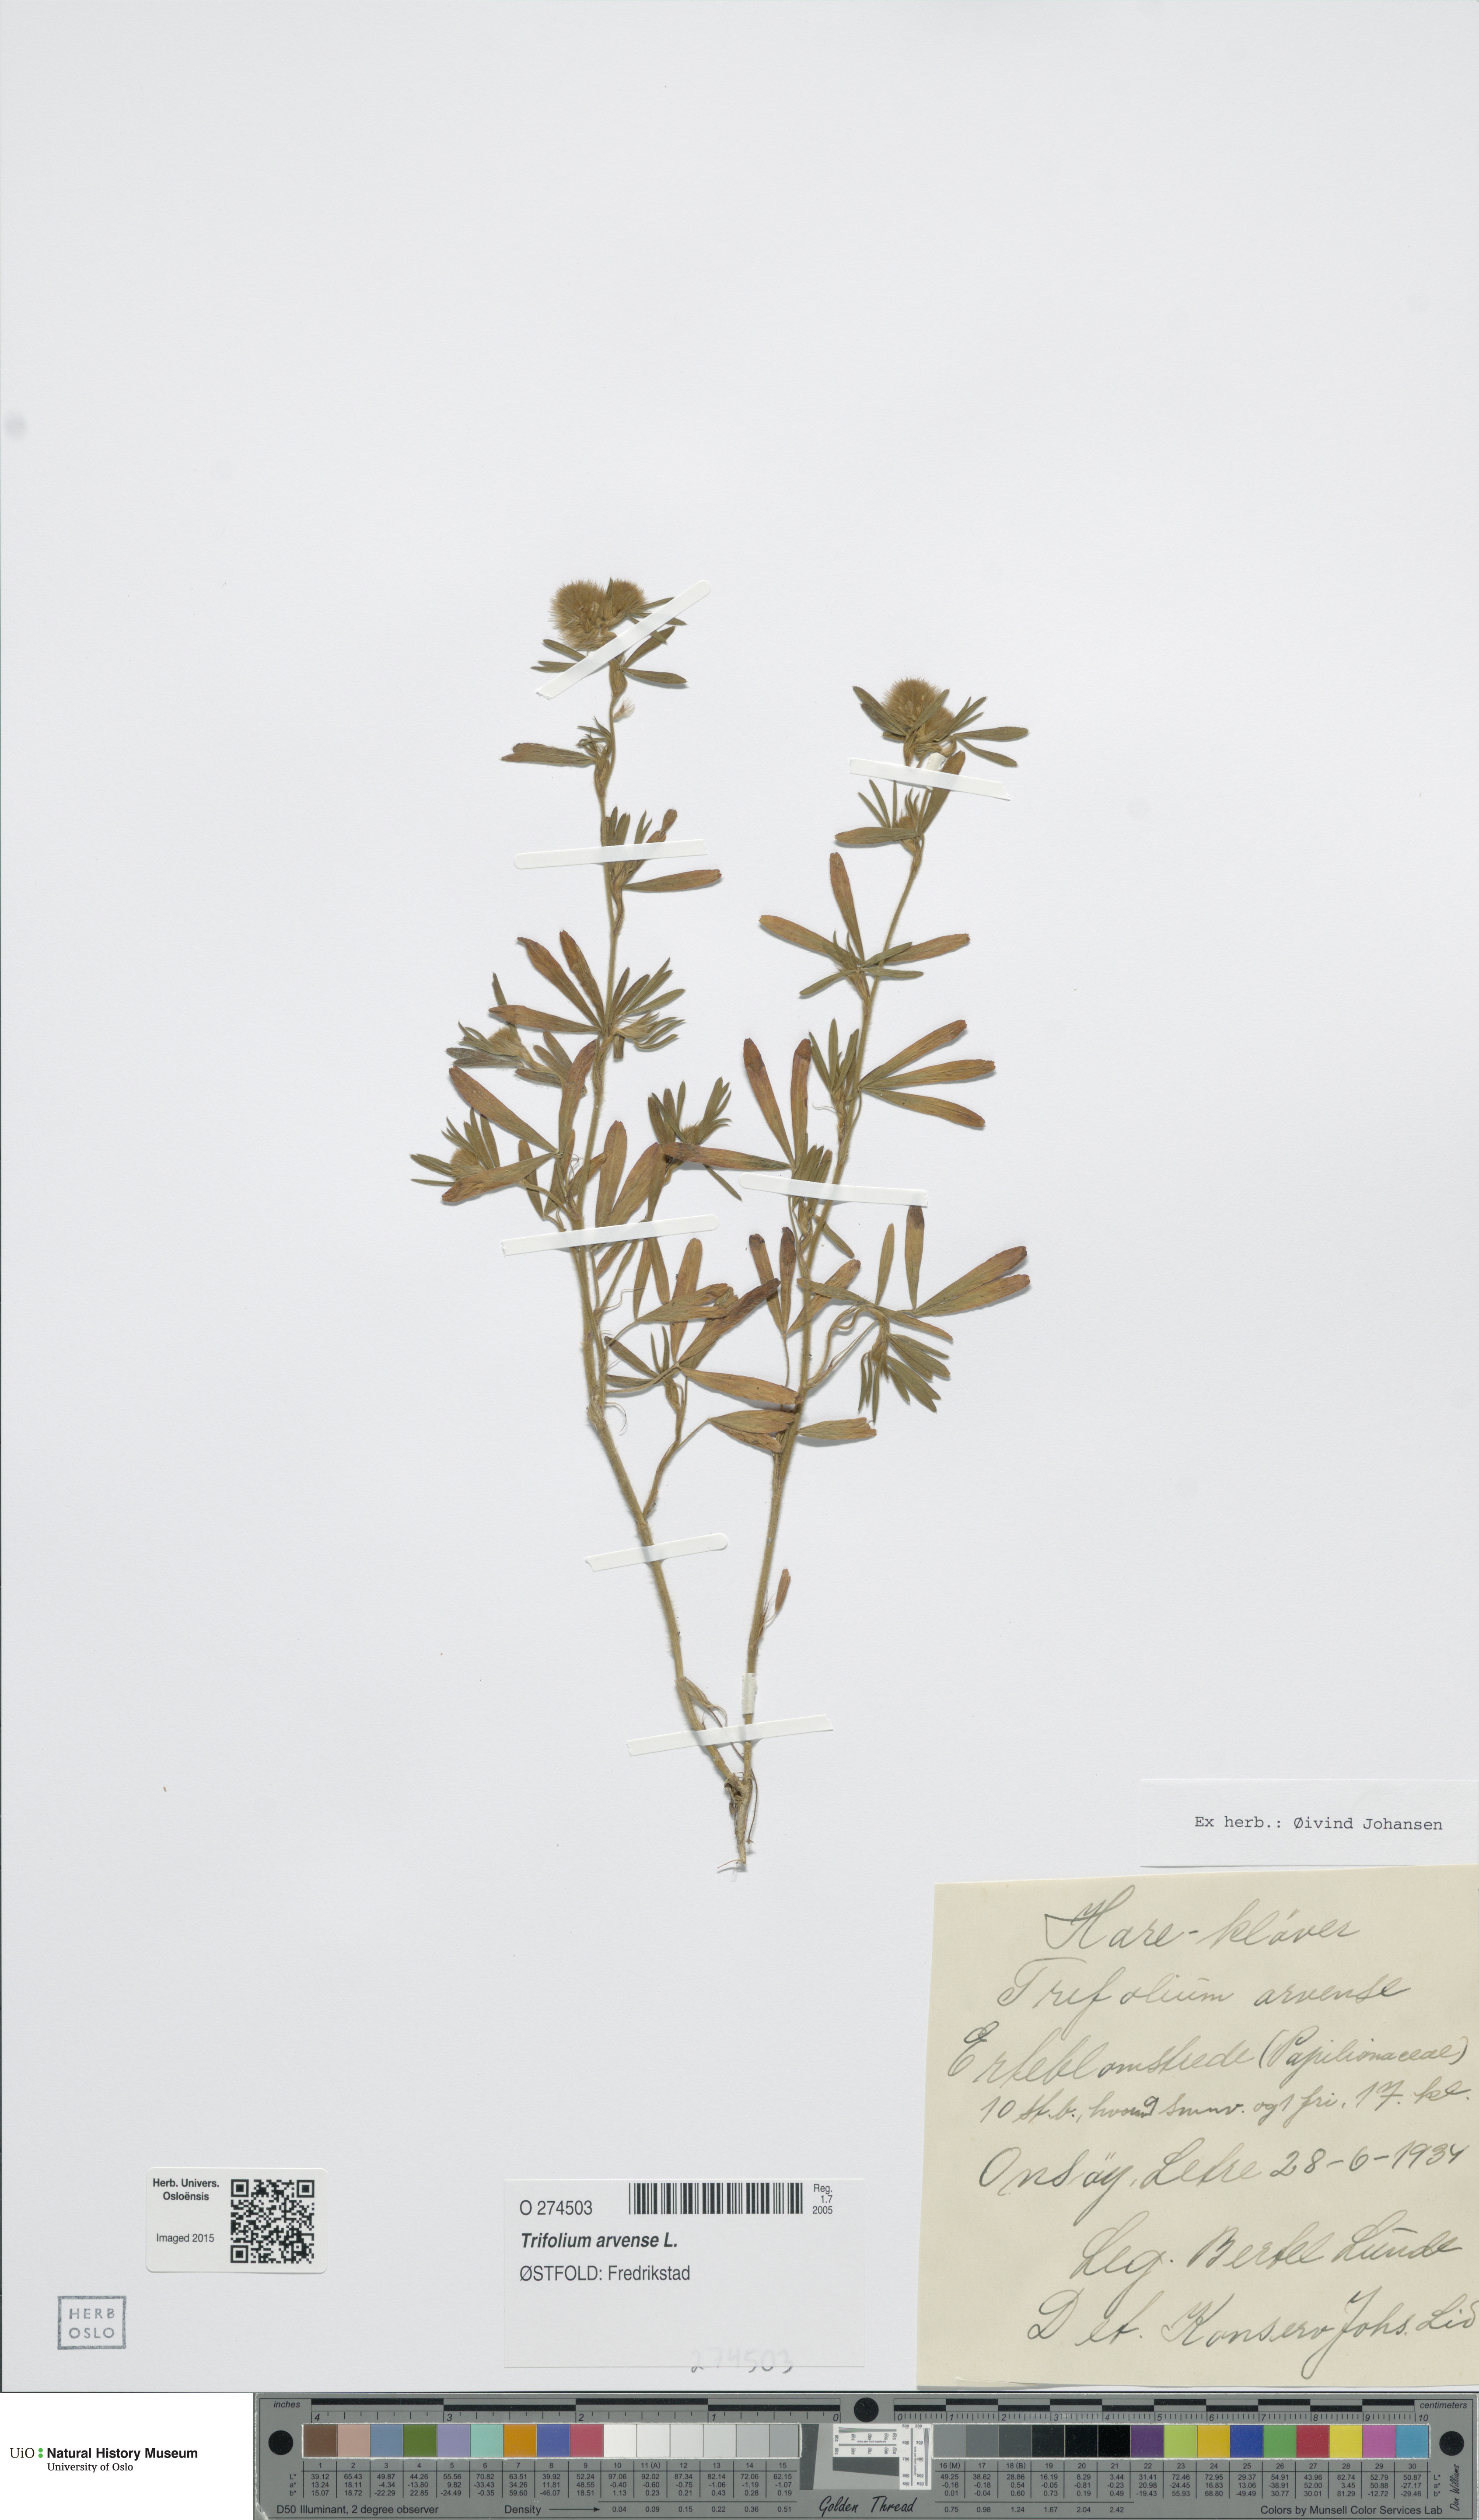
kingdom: Plantae
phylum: Tracheophyta
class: Magnoliopsida
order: Fabales
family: Fabaceae
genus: Trifolium
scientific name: Trifolium arvense
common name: Hare's-foot clover
